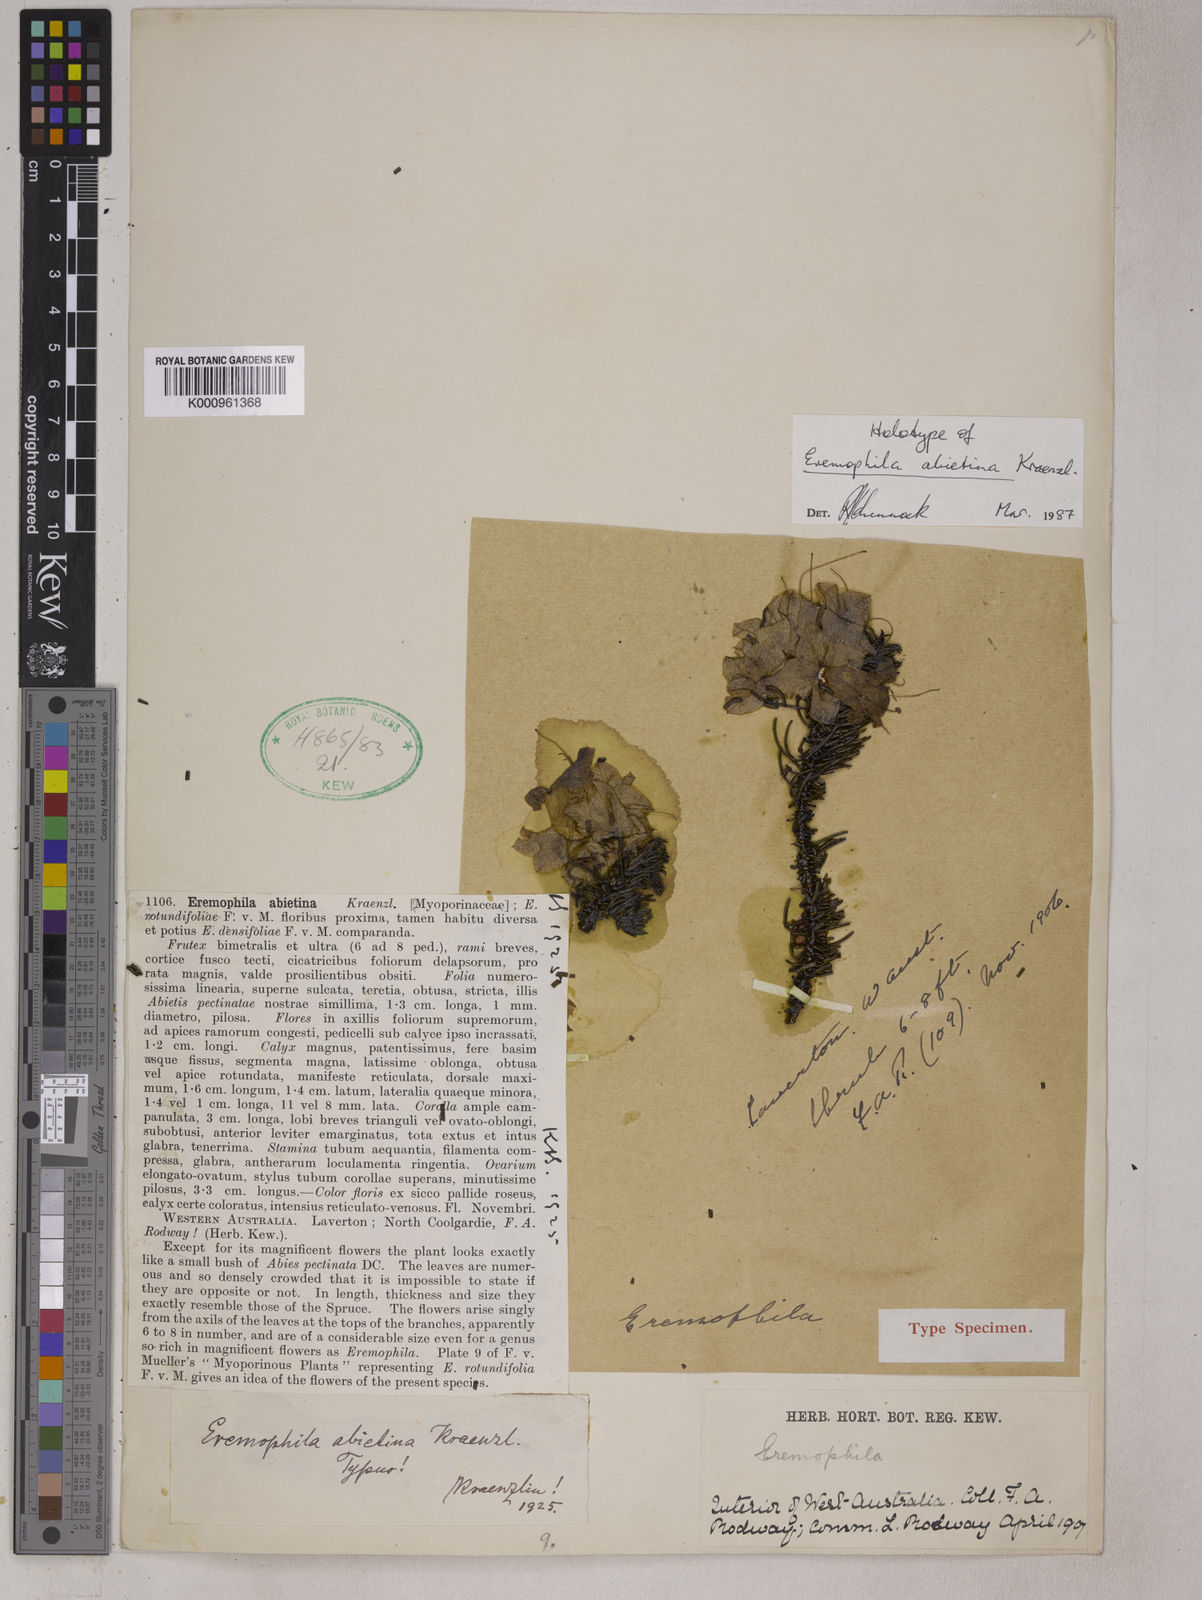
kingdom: Plantae
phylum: Tracheophyta
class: Magnoliopsida
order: Lamiales
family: Scrophulariaceae
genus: Eremophila
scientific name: Eremophila abietina
